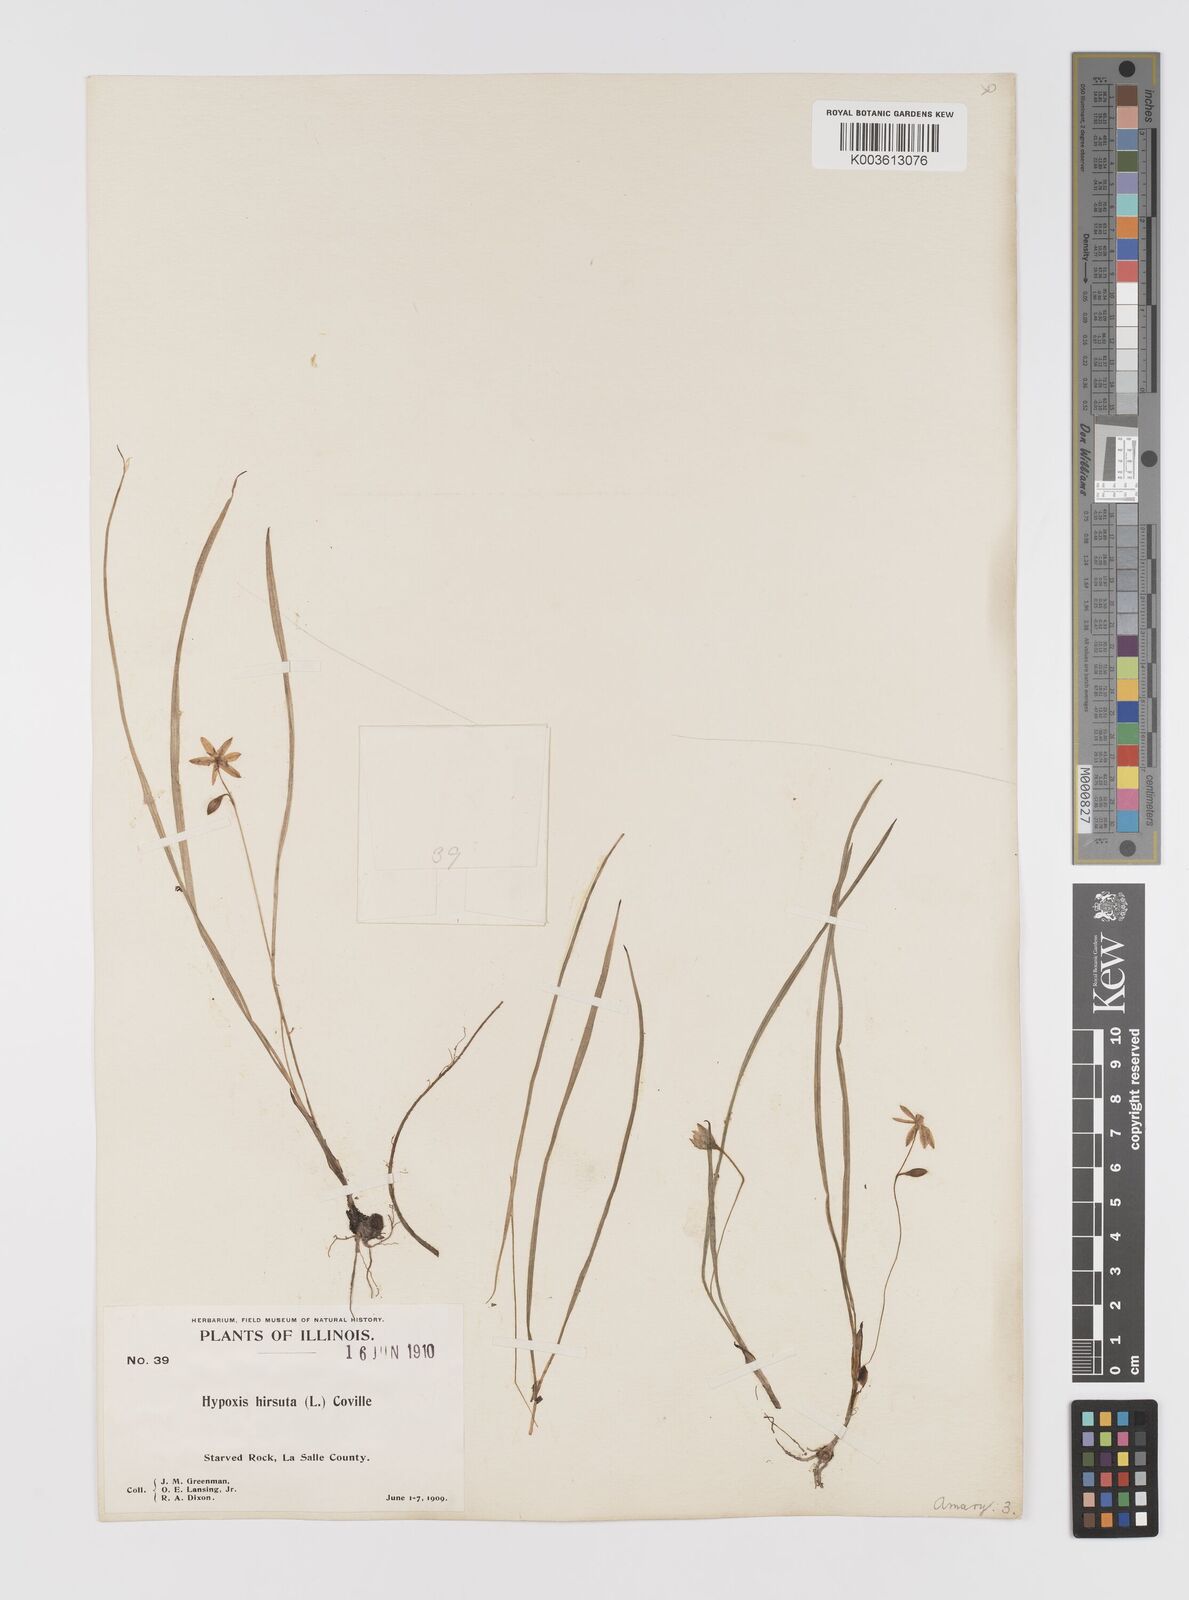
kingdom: Plantae
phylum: Tracheophyta
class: Liliopsida
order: Asparagales
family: Hypoxidaceae
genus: Hypoxis
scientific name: Hypoxis hirsuta
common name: Common goldstar
